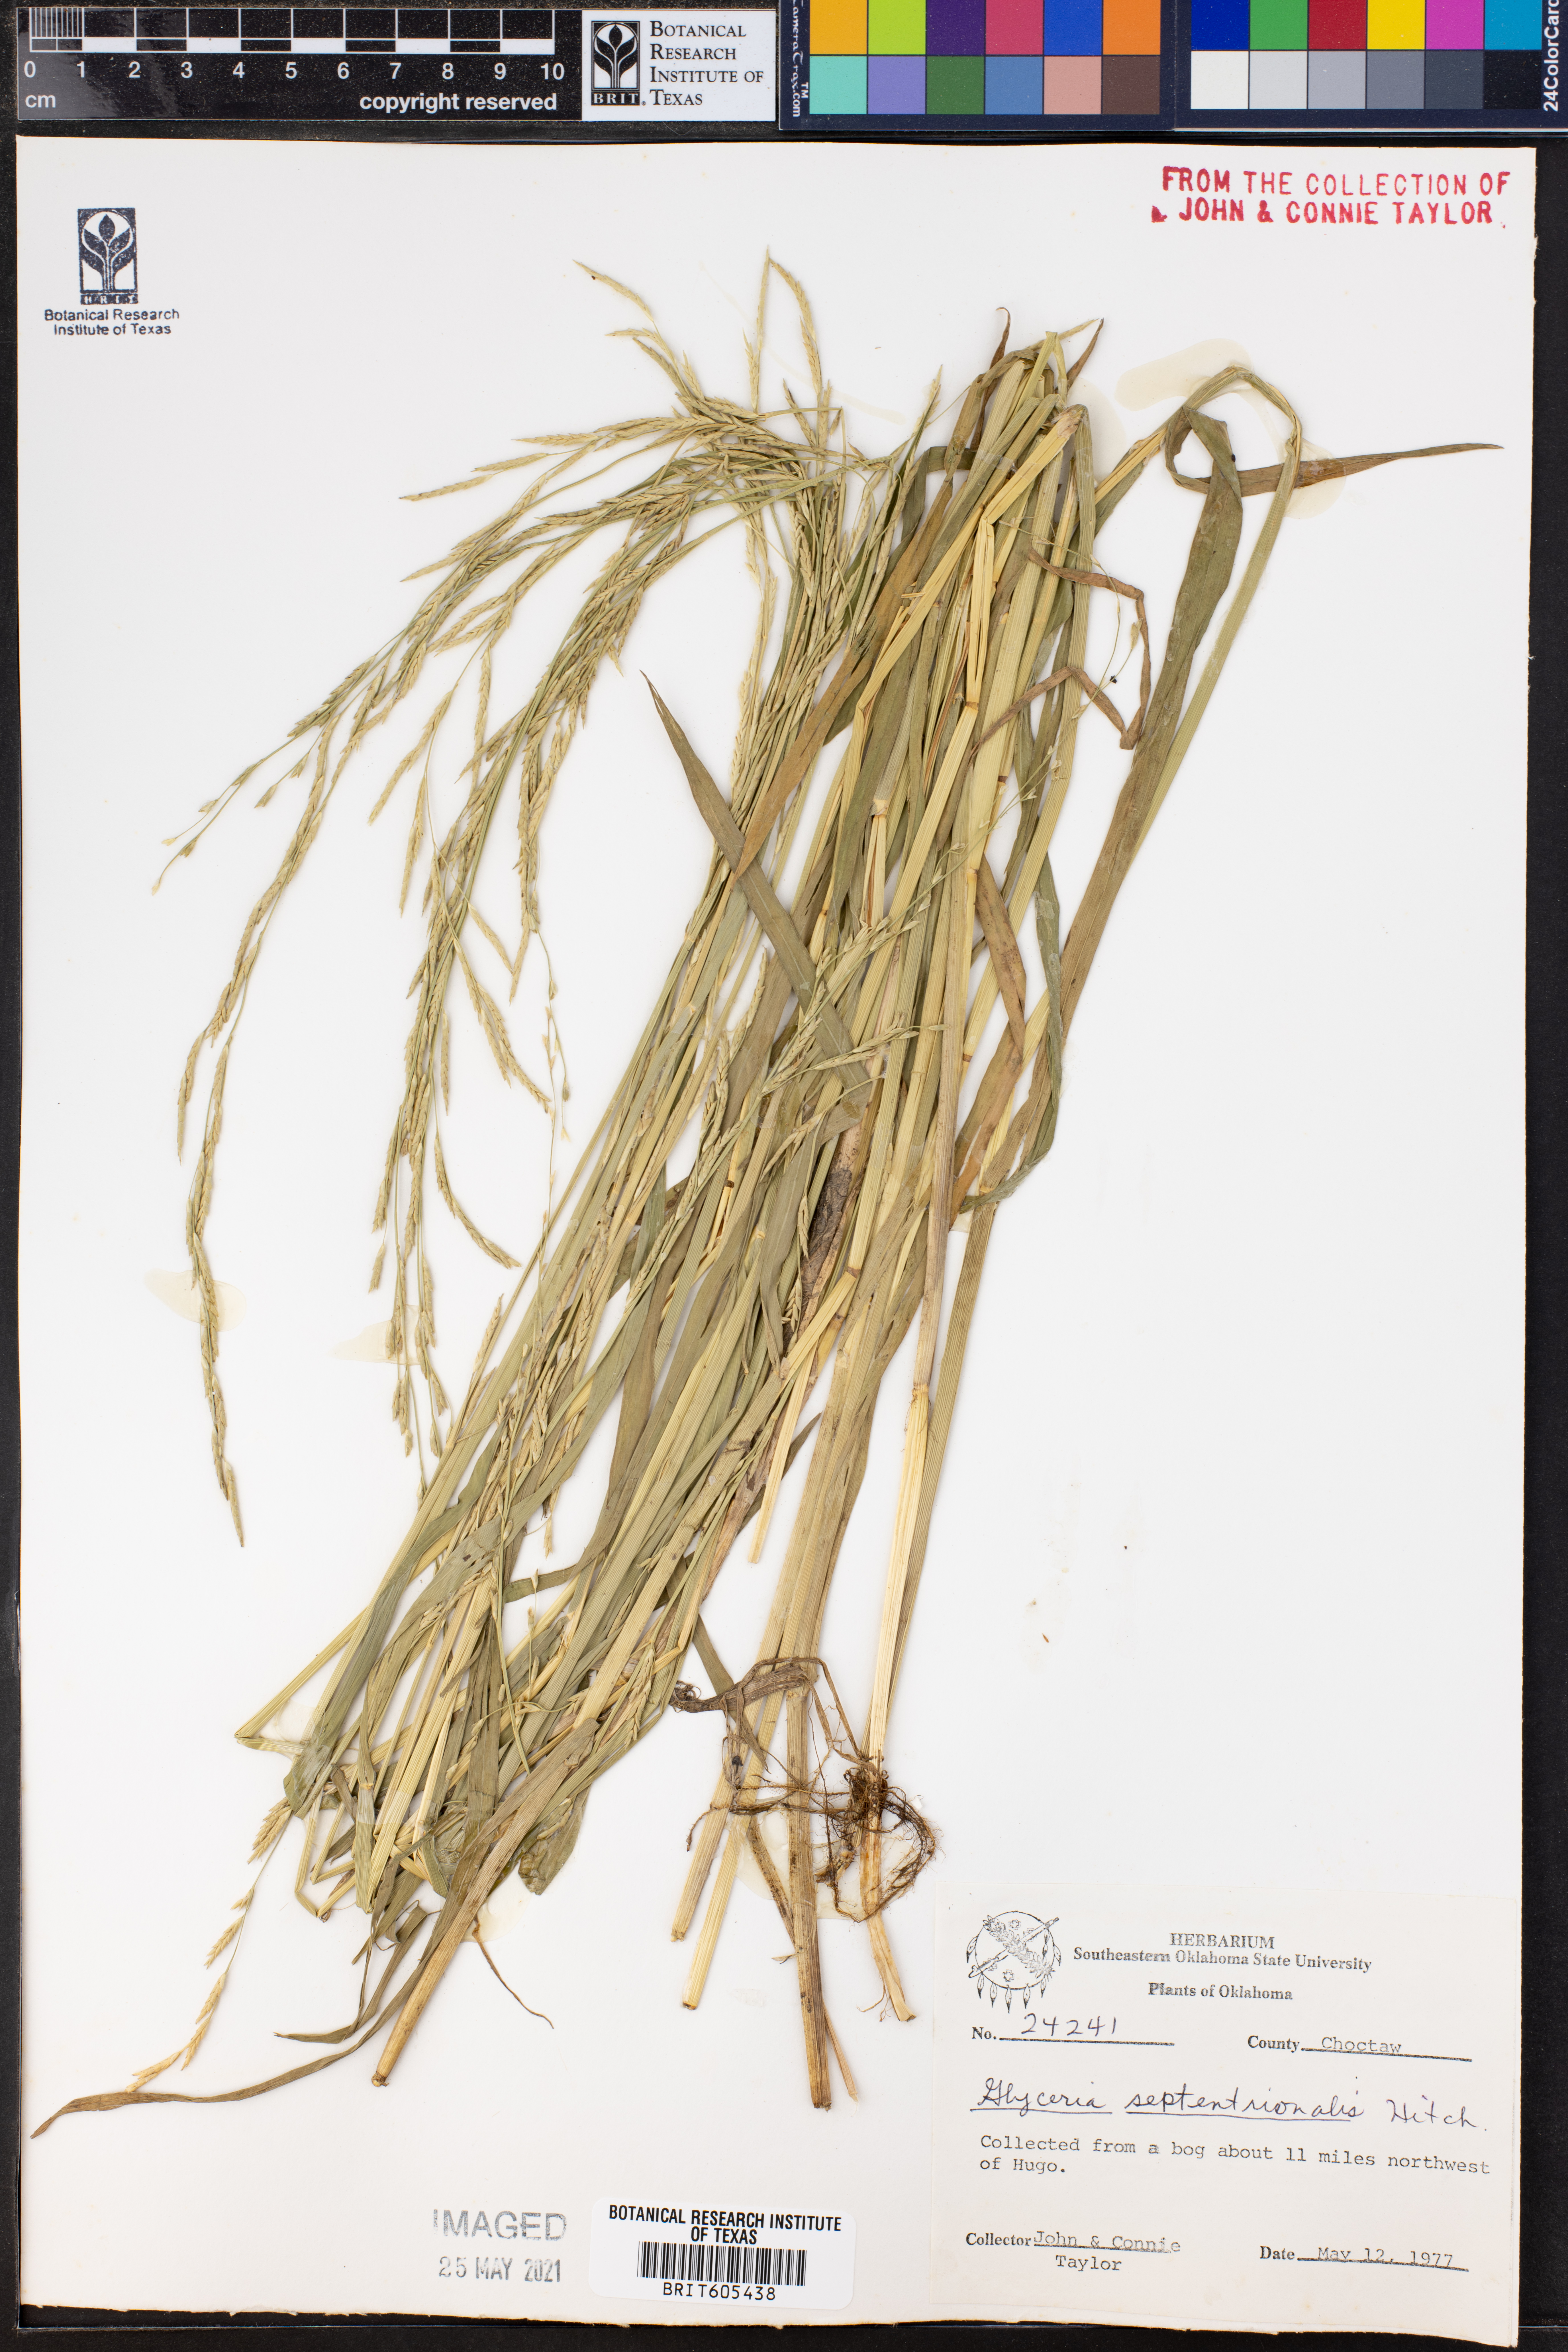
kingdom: Plantae
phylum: Tracheophyta
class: Liliopsida
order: Poales
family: Poaceae
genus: Glyceria
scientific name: Glyceria septentrionalis
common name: Eastern mannagrass
